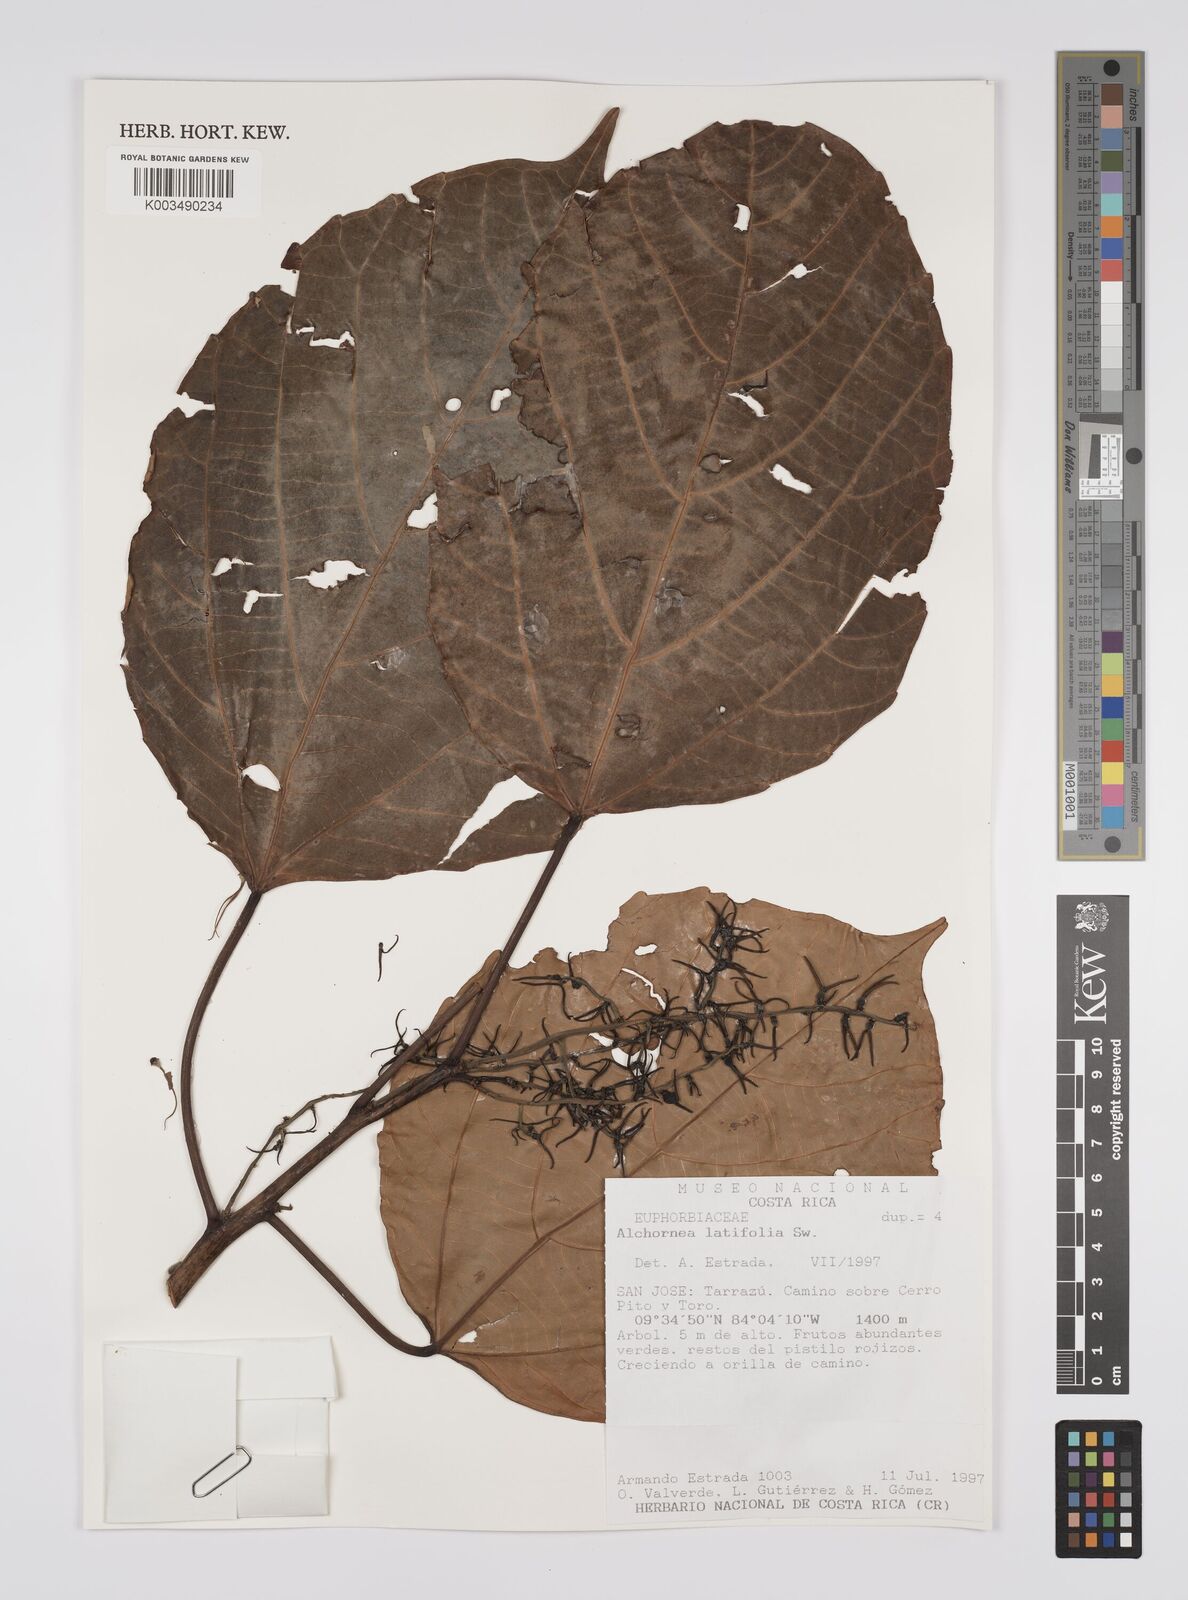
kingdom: Plantae
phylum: Tracheophyta
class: Magnoliopsida
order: Malpighiales
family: Euphorbiaceae
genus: Alchornea
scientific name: Alchornea latifolia
